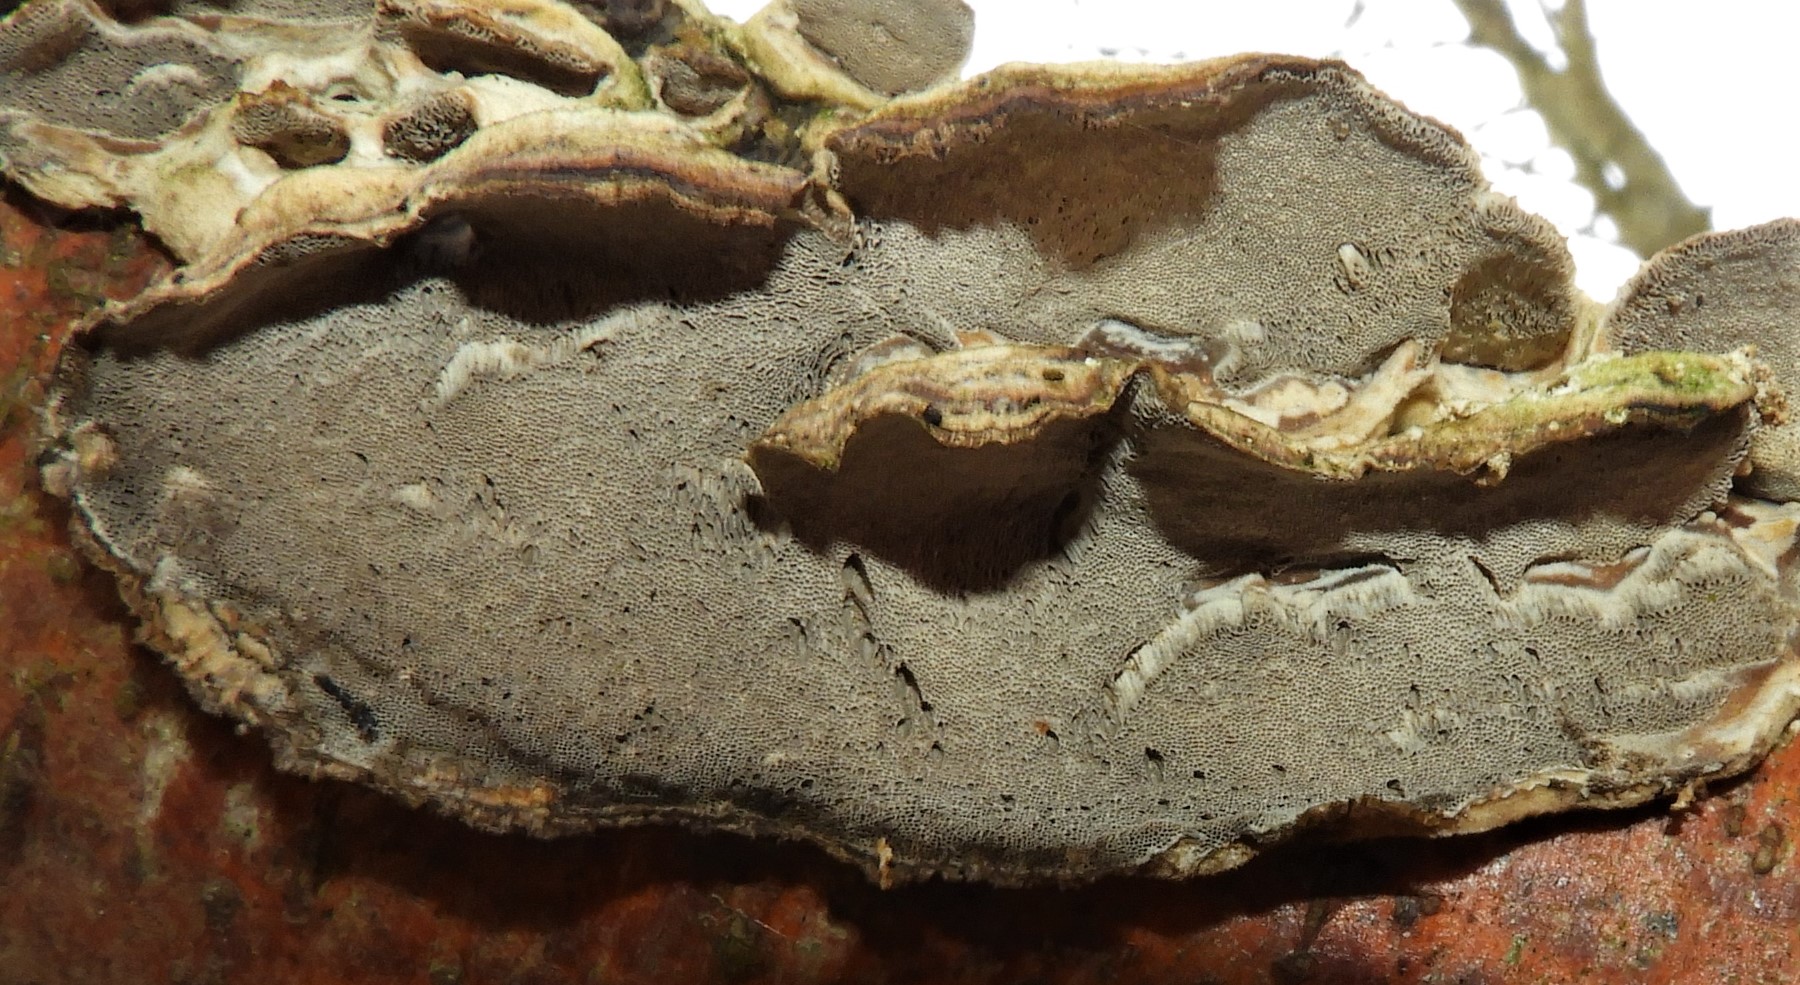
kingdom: Fungi
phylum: Basidiomycota
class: Agaricomycetes
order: Polyporales
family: Polyporaceae
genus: Trametes
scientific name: Trametes hirsuta
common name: håret læderporesvamp
